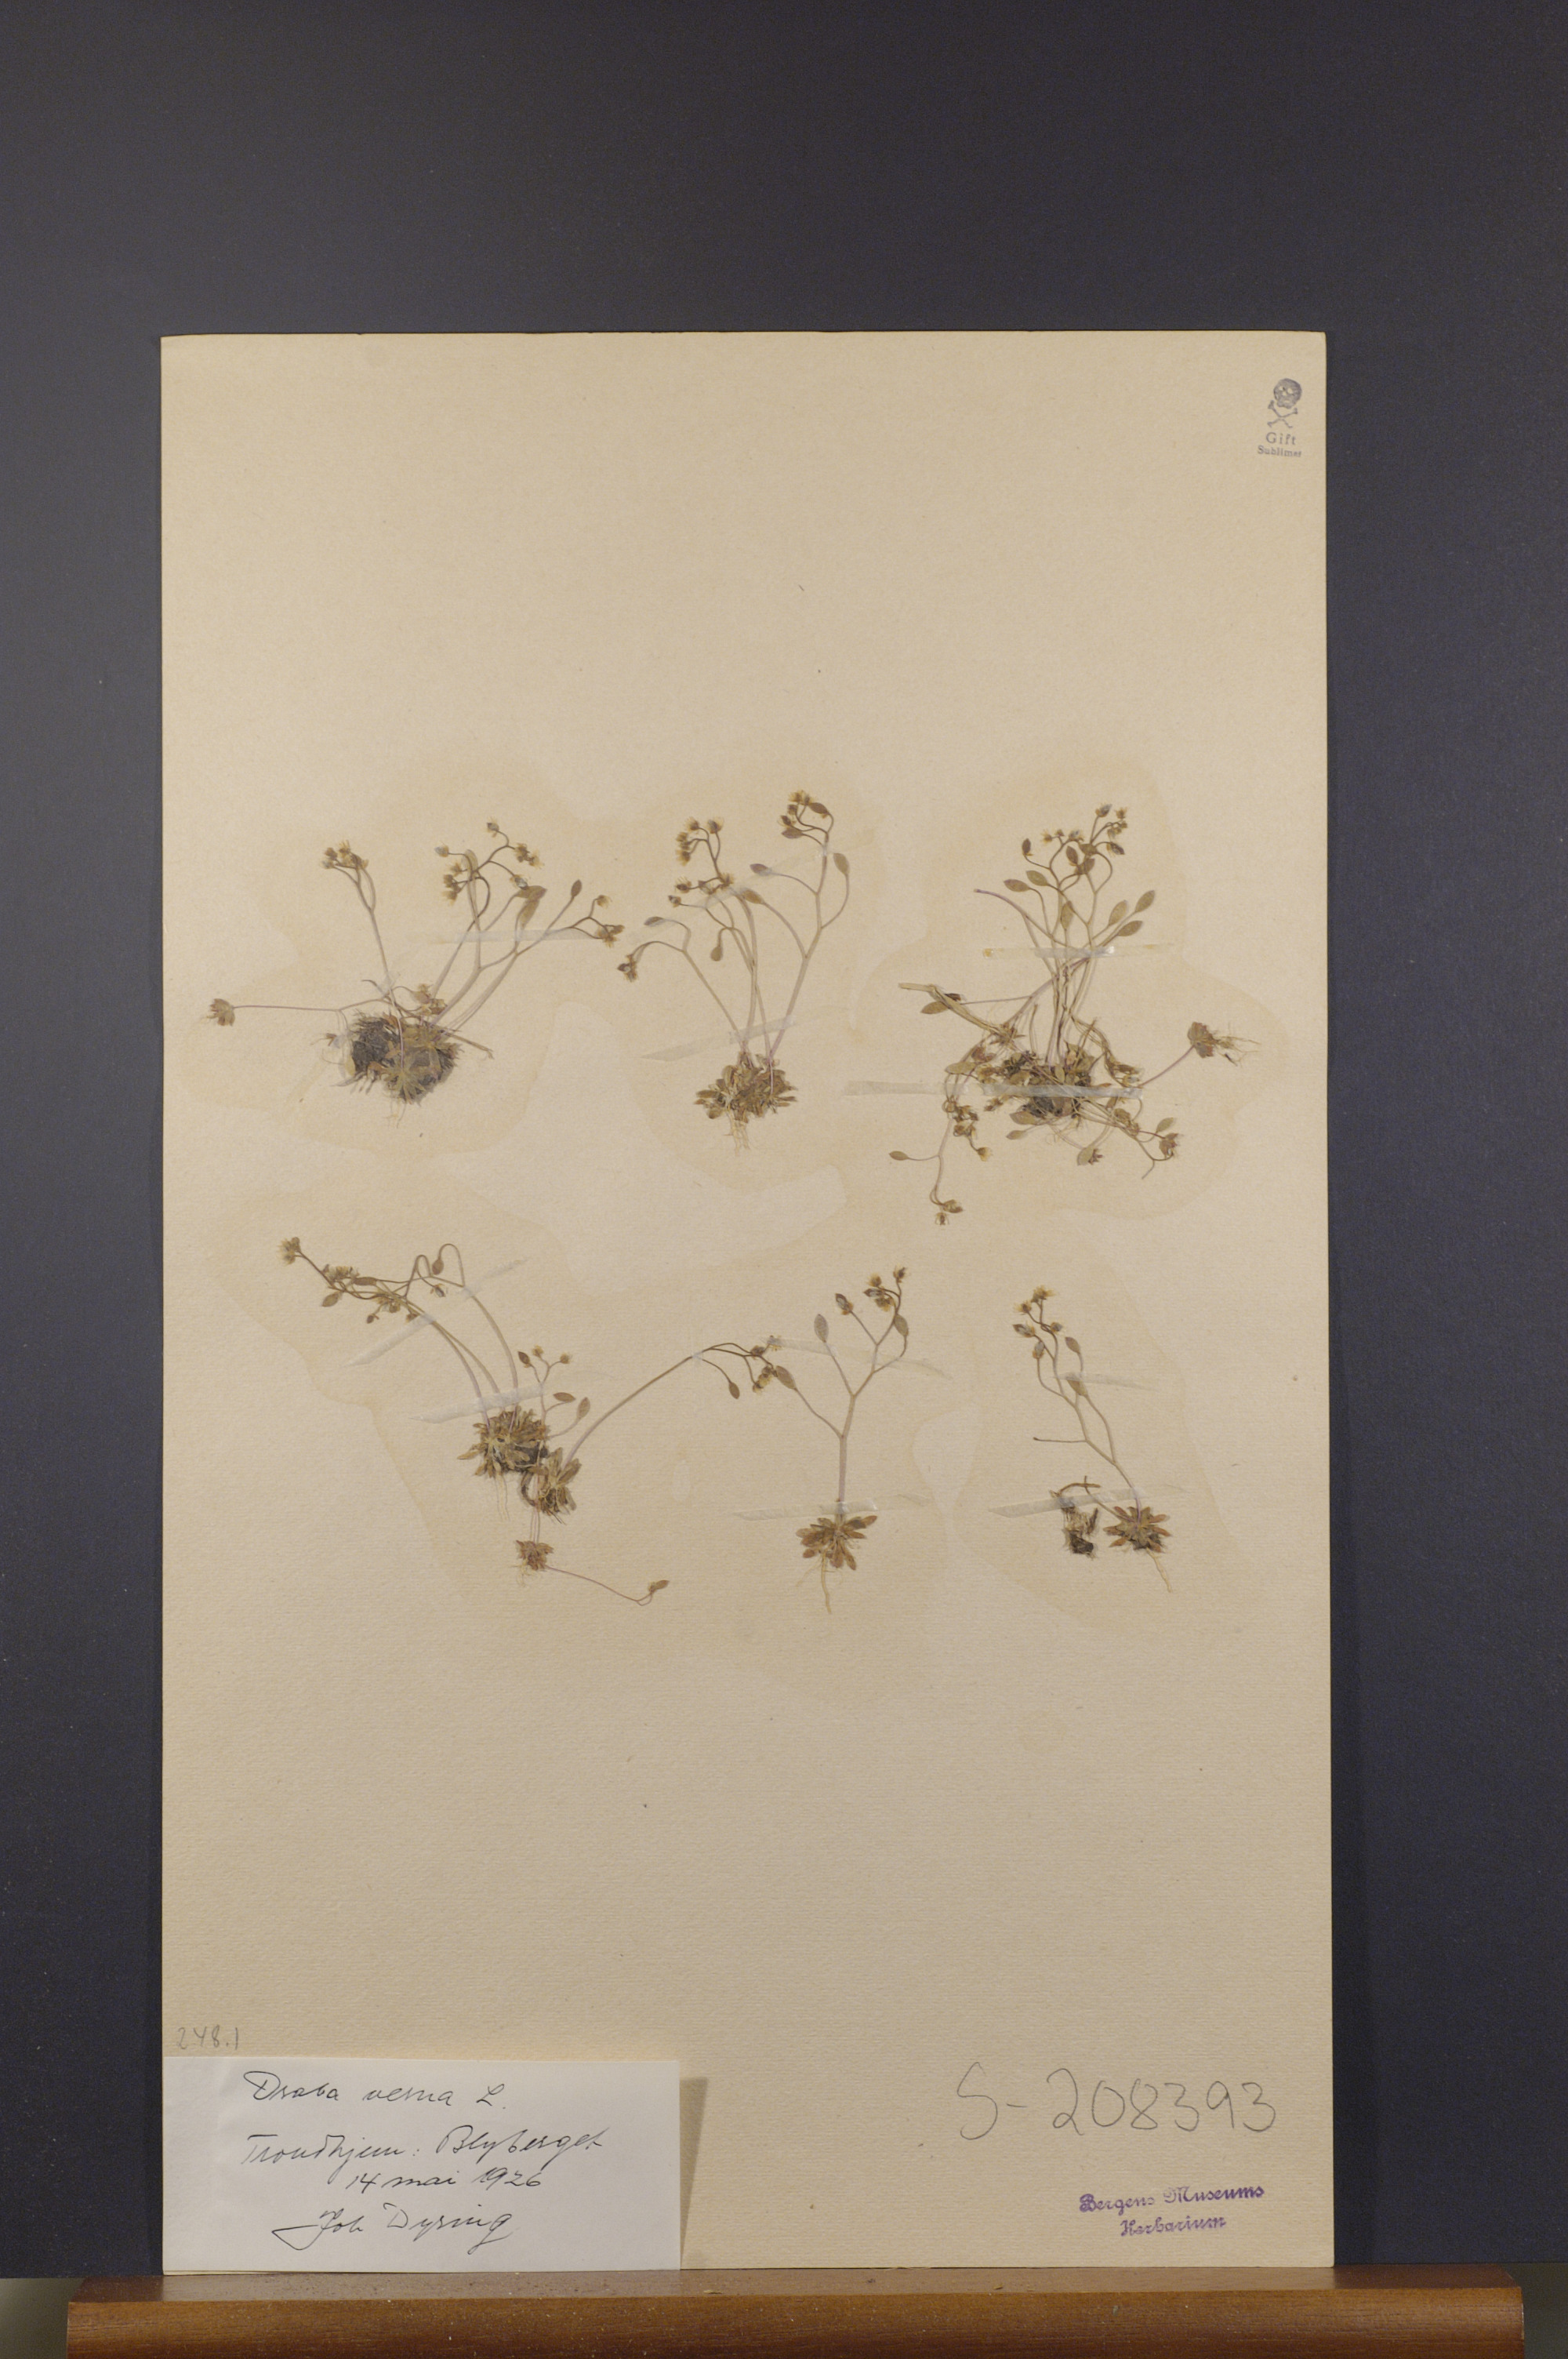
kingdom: Plantae
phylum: Tracheophyta
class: Magnoliopsida
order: Brassicales
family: Brassicaceae
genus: Draba
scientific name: Draba verna
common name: Spring draba
